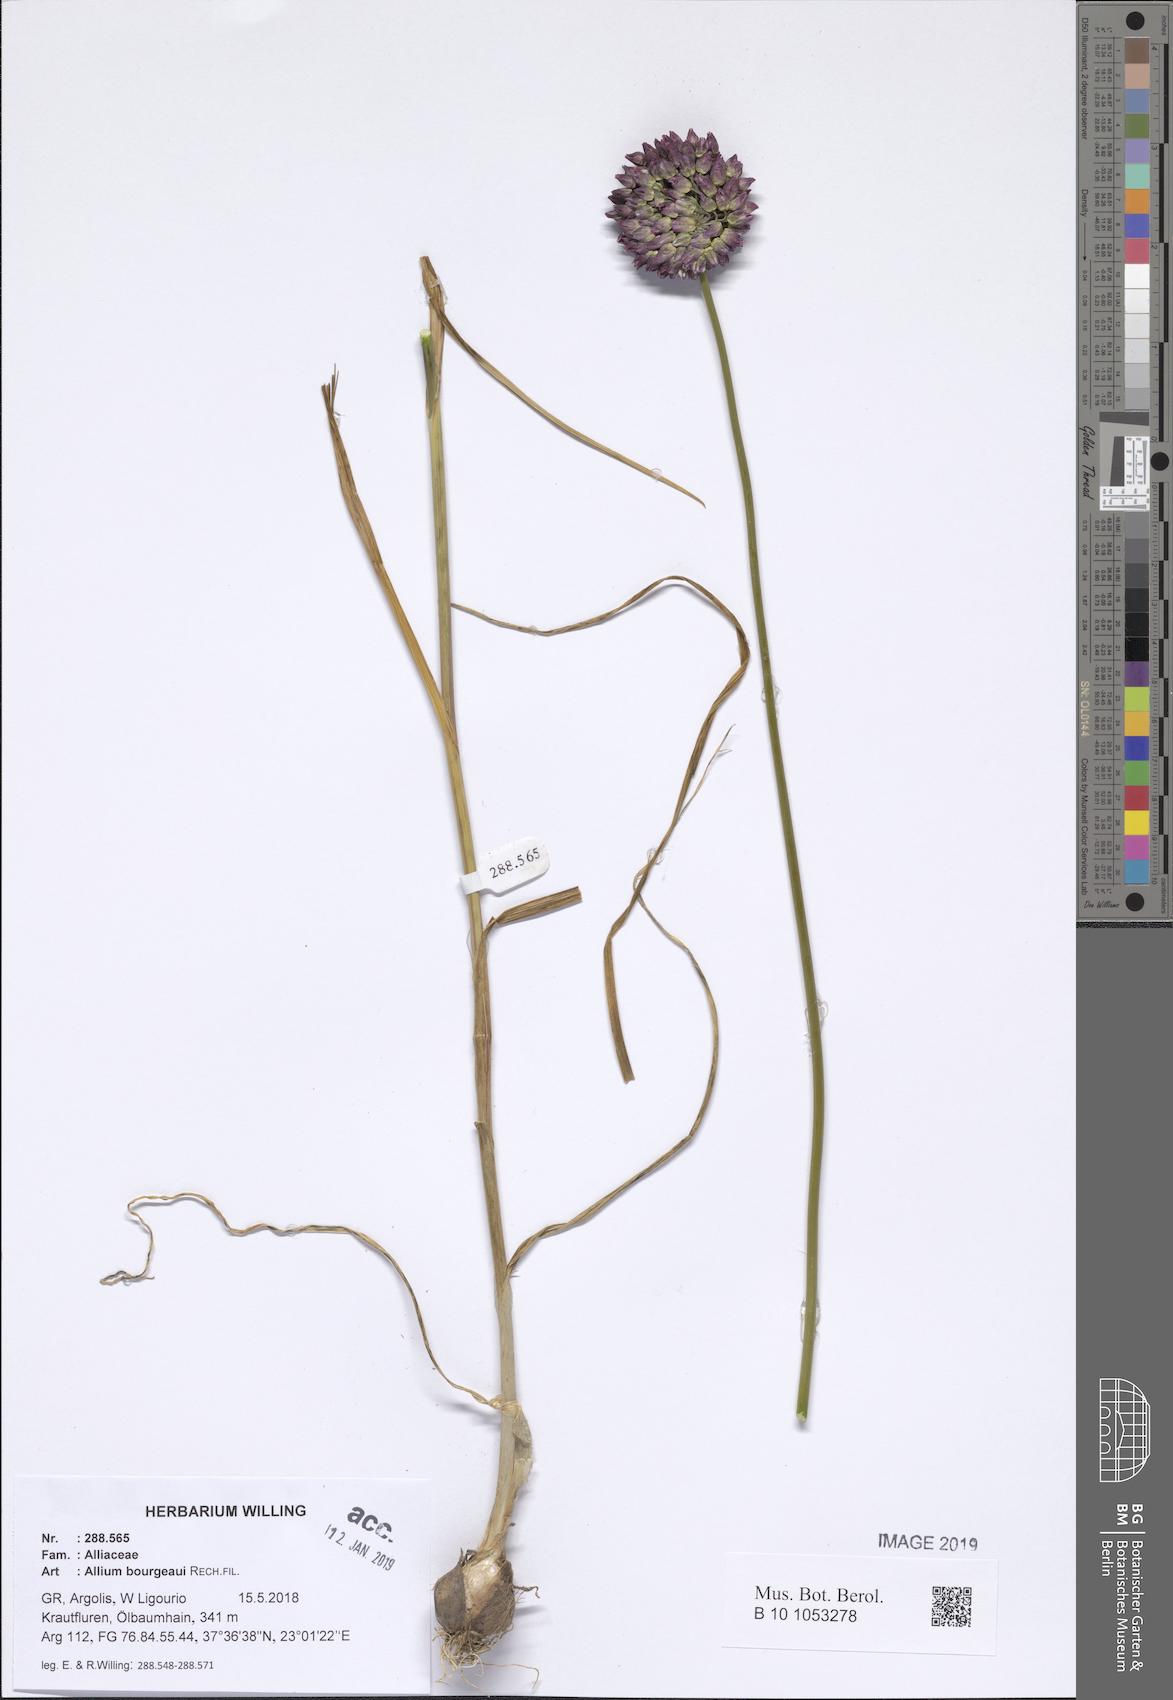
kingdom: Plantae
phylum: Tracheophyta
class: Liliopsida
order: Asparagales
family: Amaryllidaceae
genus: Allium
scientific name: Allium bourgeaui
